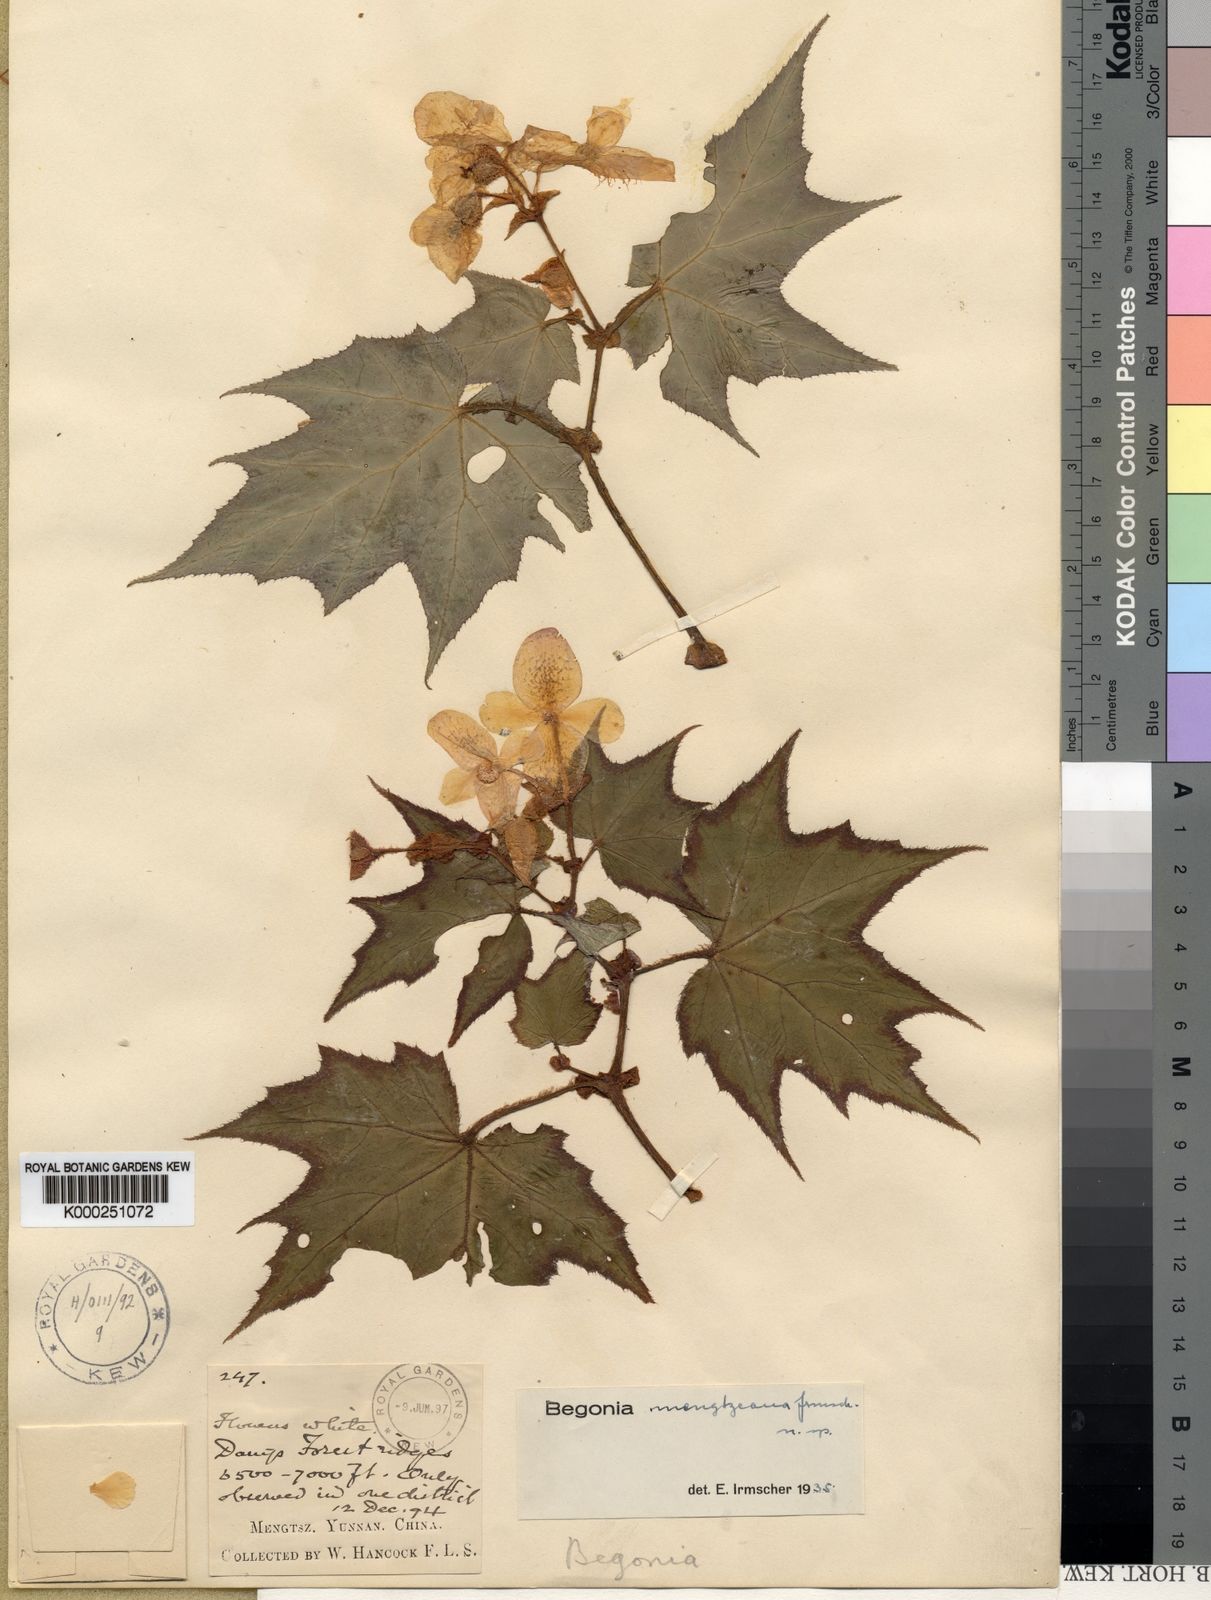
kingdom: Plantae
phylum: Tracheophyta
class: Magnoliopsida
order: Cucurbitales
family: Begoniaceae
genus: Begonia
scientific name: Begonia mengtzeana
